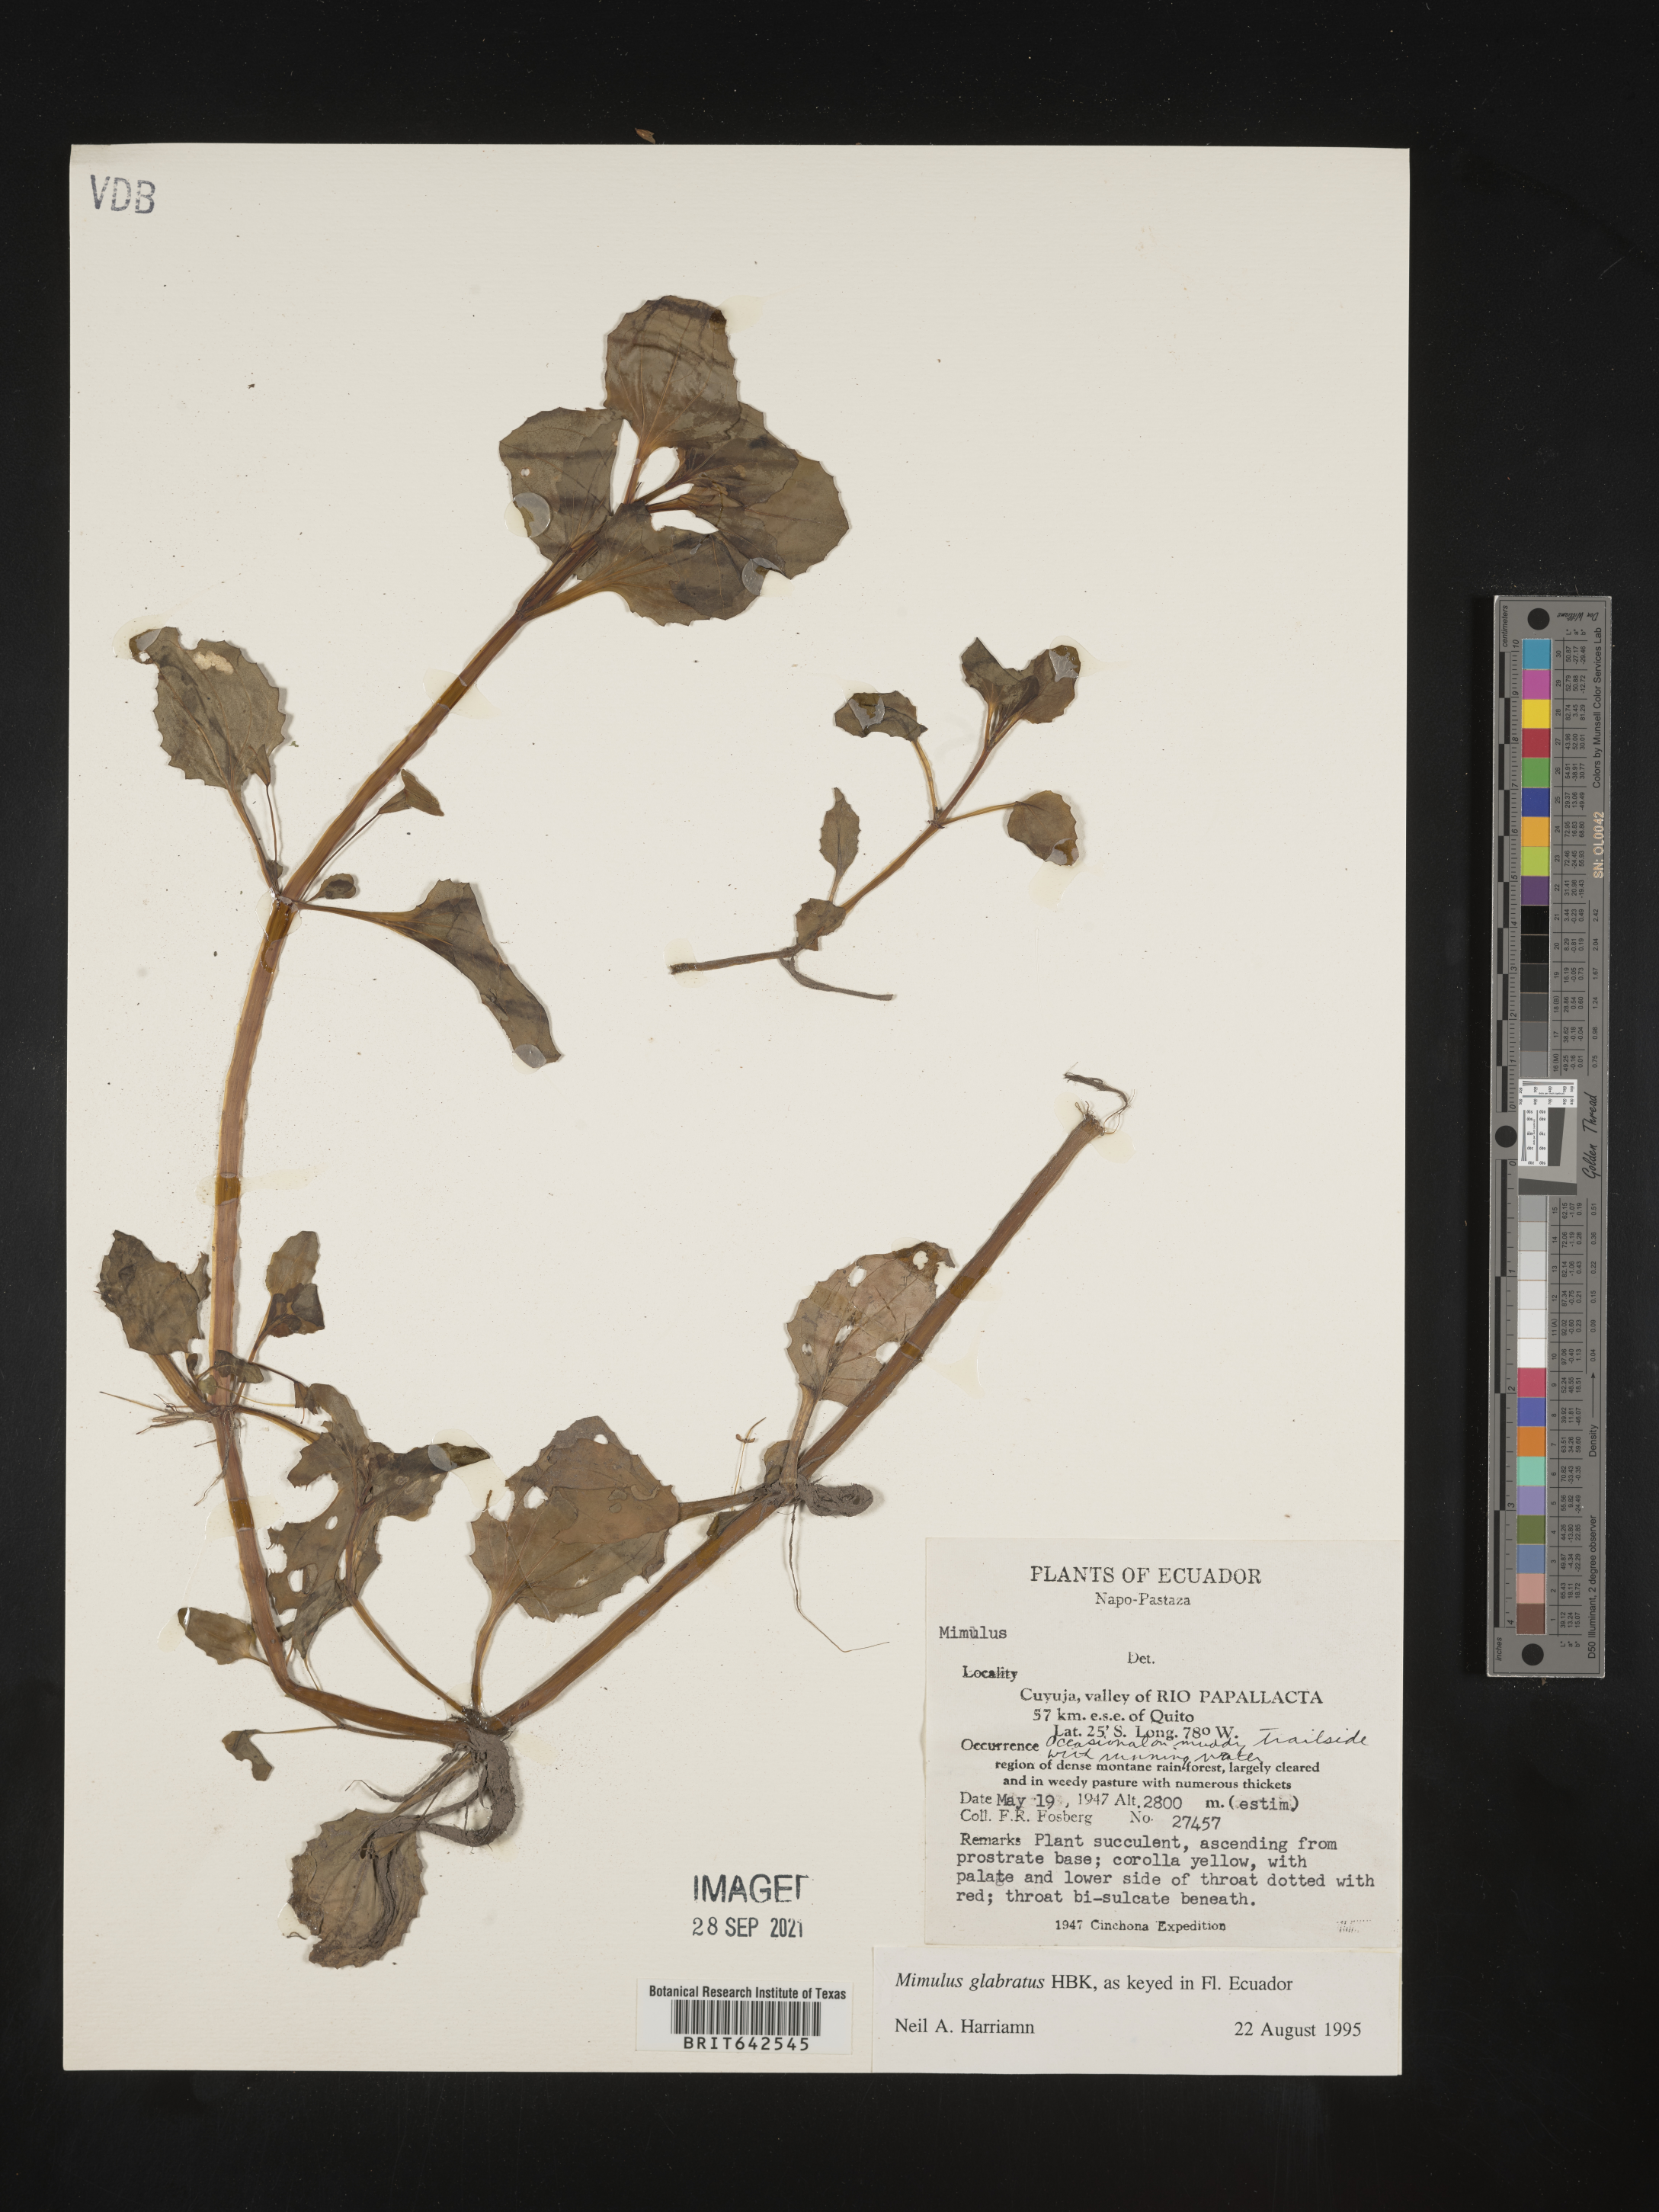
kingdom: Plantae
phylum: Tracheophyta
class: Magnoliopsida
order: Lamiales
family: Phrymaceae
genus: Mimulus
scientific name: Mimulus
